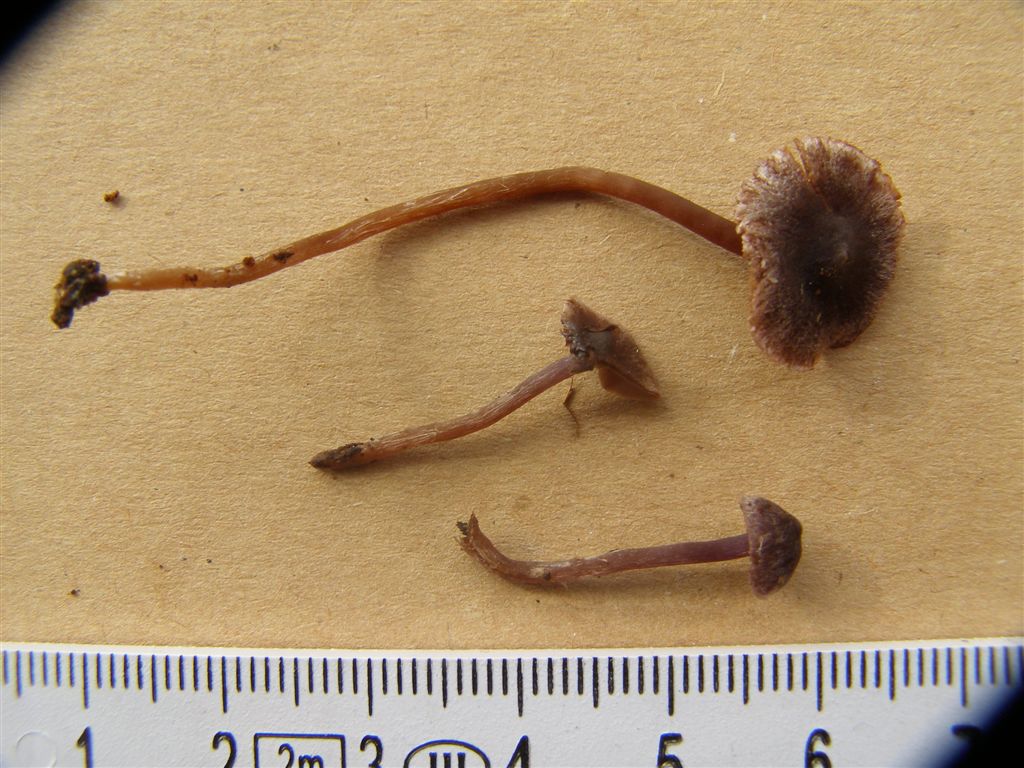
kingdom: Fungi
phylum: Basidiomycota
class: Agaricomycetes
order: Agaricales
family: Cortinariaceae
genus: Cortinarius
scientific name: Cortinarius americanus
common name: natsort slørhat
